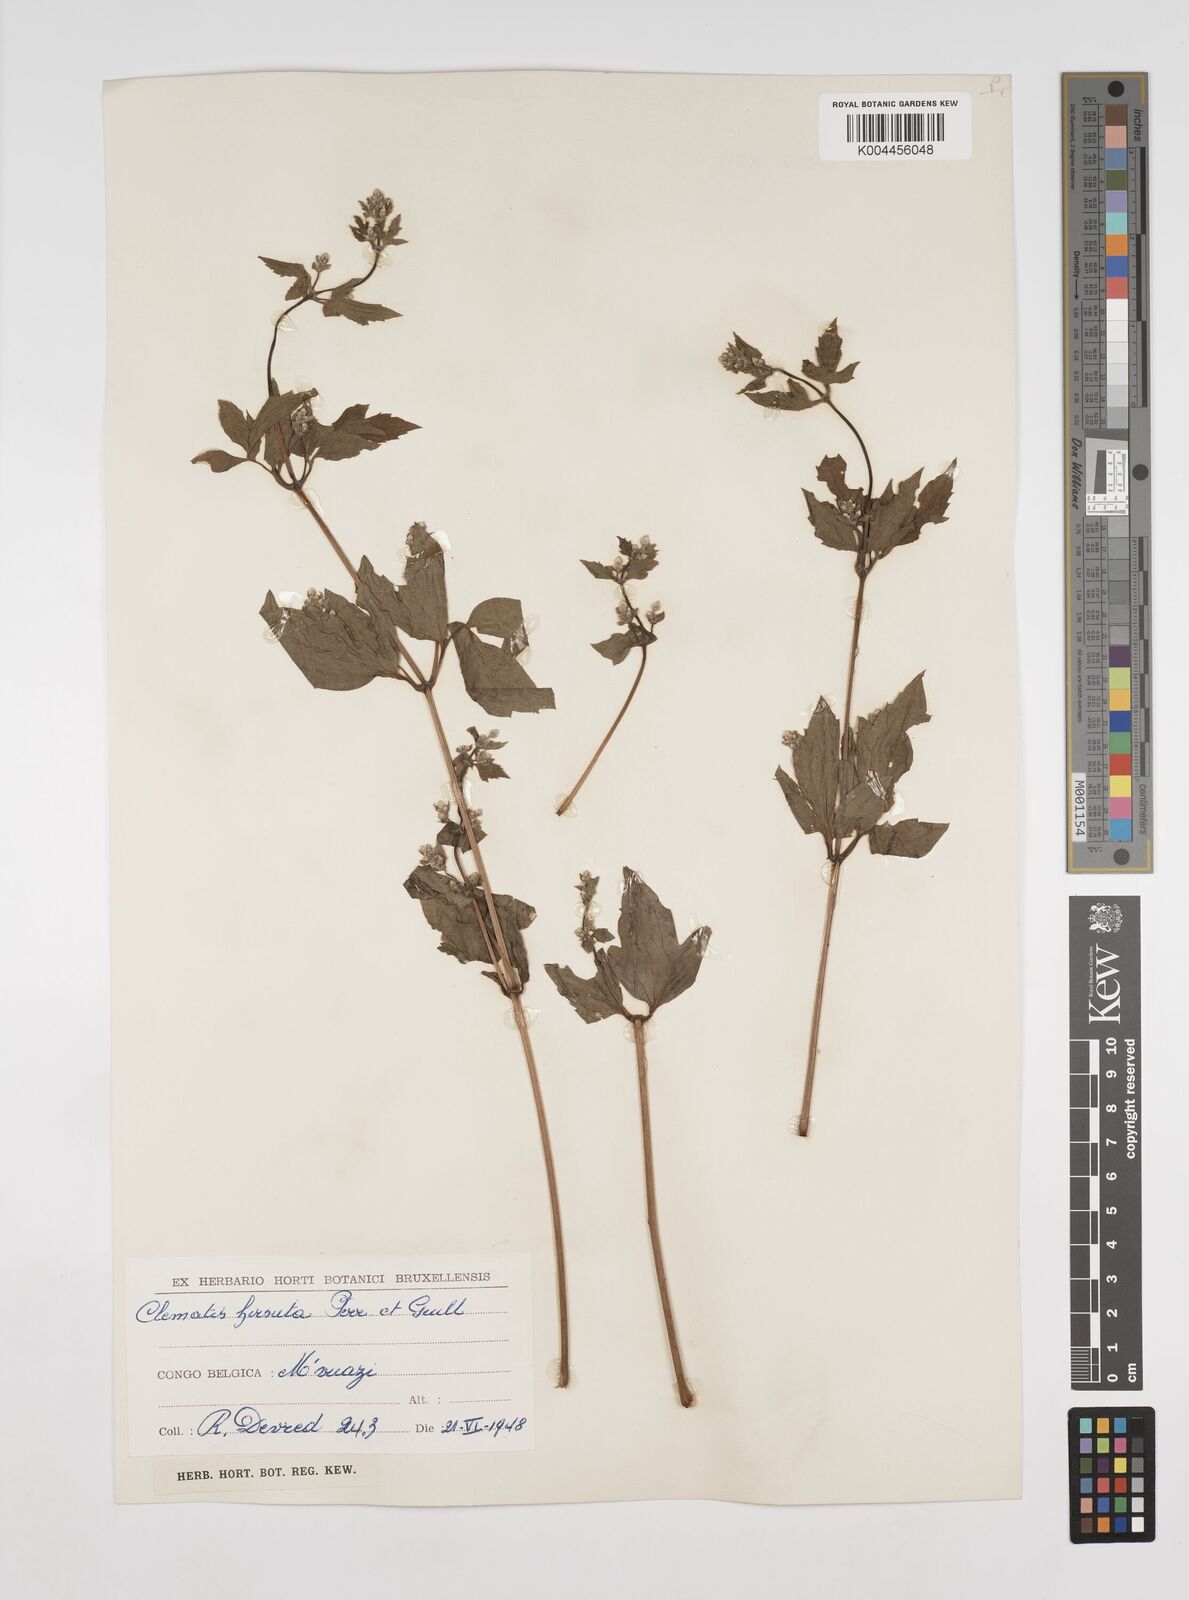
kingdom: Plantae
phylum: Tracheophyta
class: Magnoliopsida
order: Ranunculales
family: Ranunculaceae
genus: Clematis
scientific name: Clematis hirsuta
